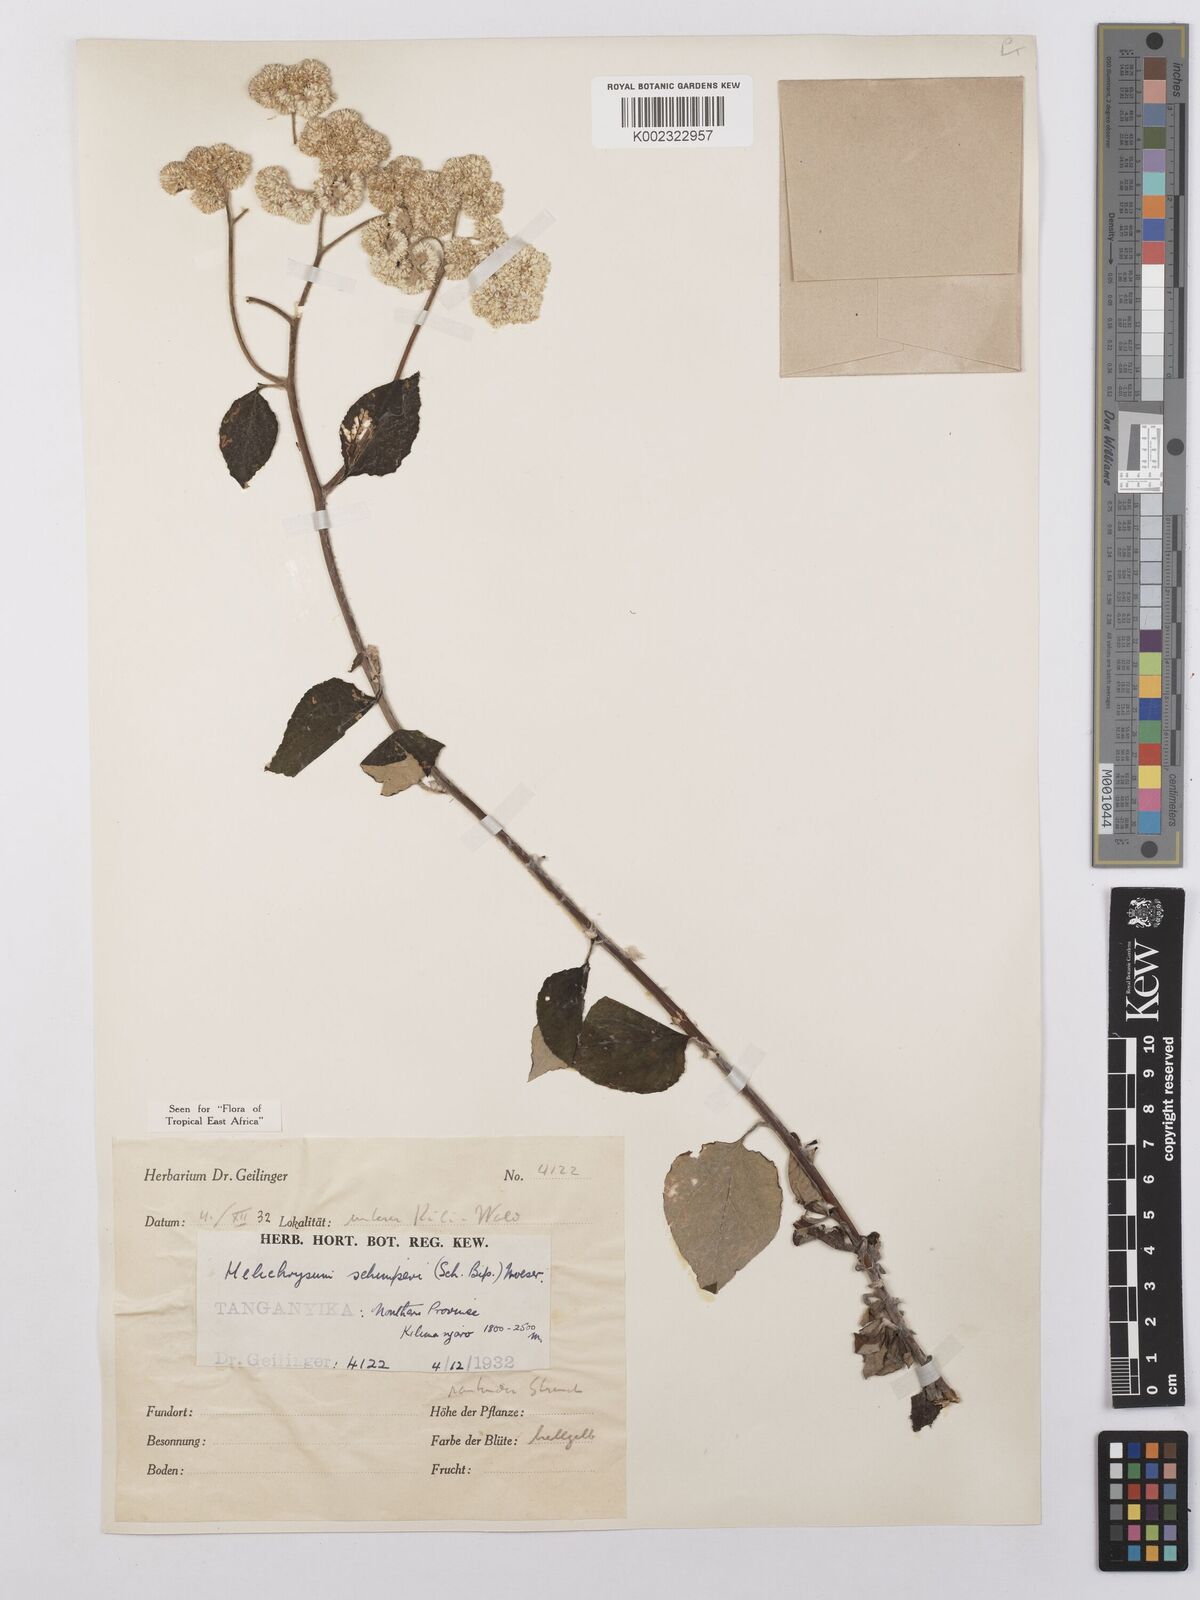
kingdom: Plantae
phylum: Tracheophyta
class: Magnoliopsida
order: Asterales
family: Asteraceae
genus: Helichrysum
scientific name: Helichrysum schimperi
